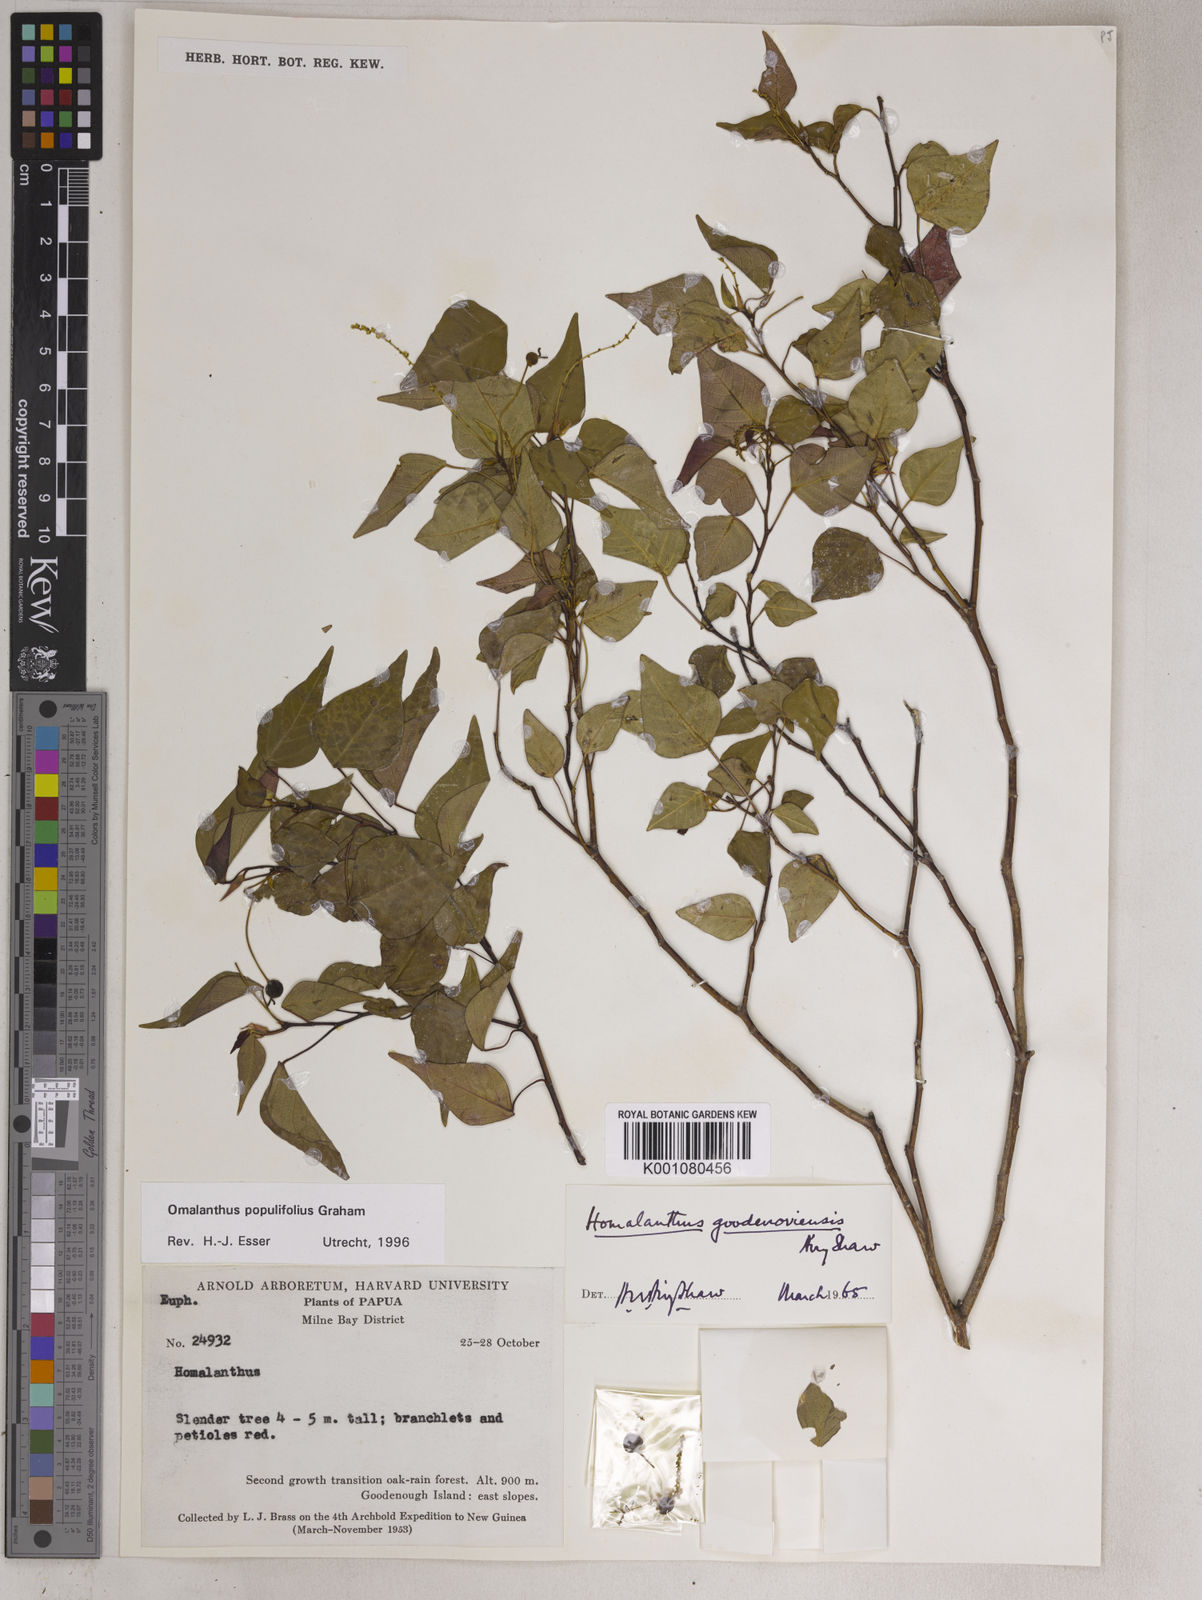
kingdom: Plantae
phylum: Tracheophyta
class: Magnoliopsida
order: Malpighiales
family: Euphorbiaceae
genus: Homalanthus
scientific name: Homalanthus populifolius
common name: Queensland poplar
